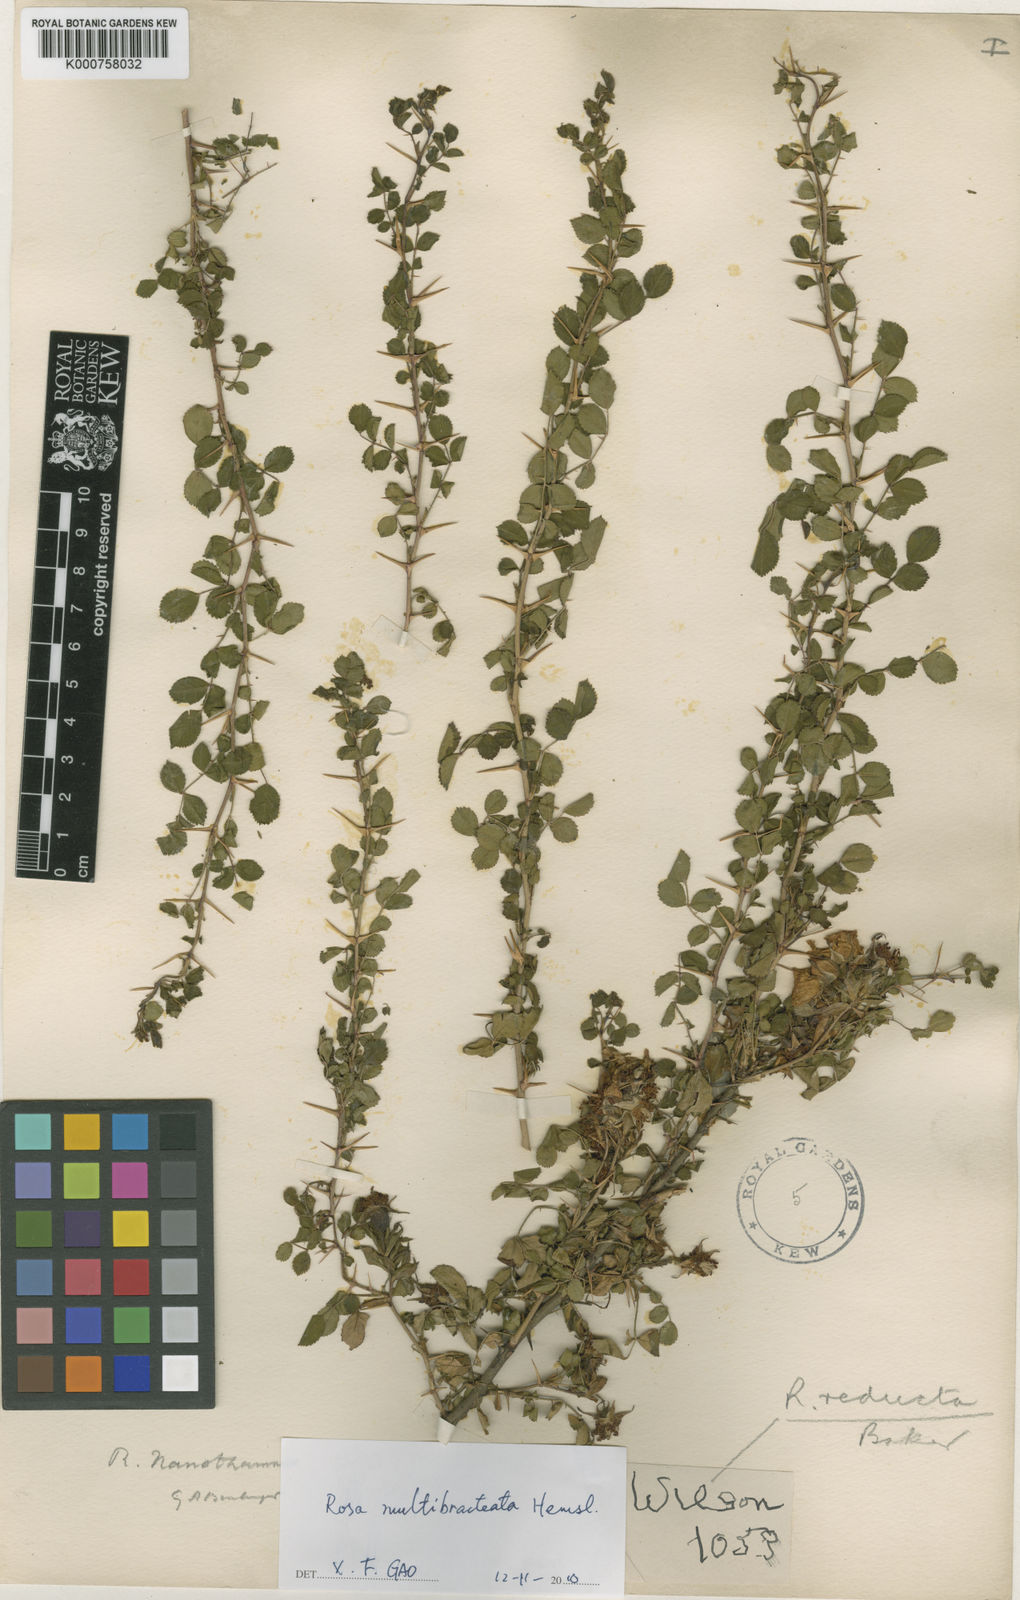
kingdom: Plantae
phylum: Tracheophyta
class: Magnoliopsida
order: Rosales
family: Rosaceae
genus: Rosa
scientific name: Rosa multibracteata
